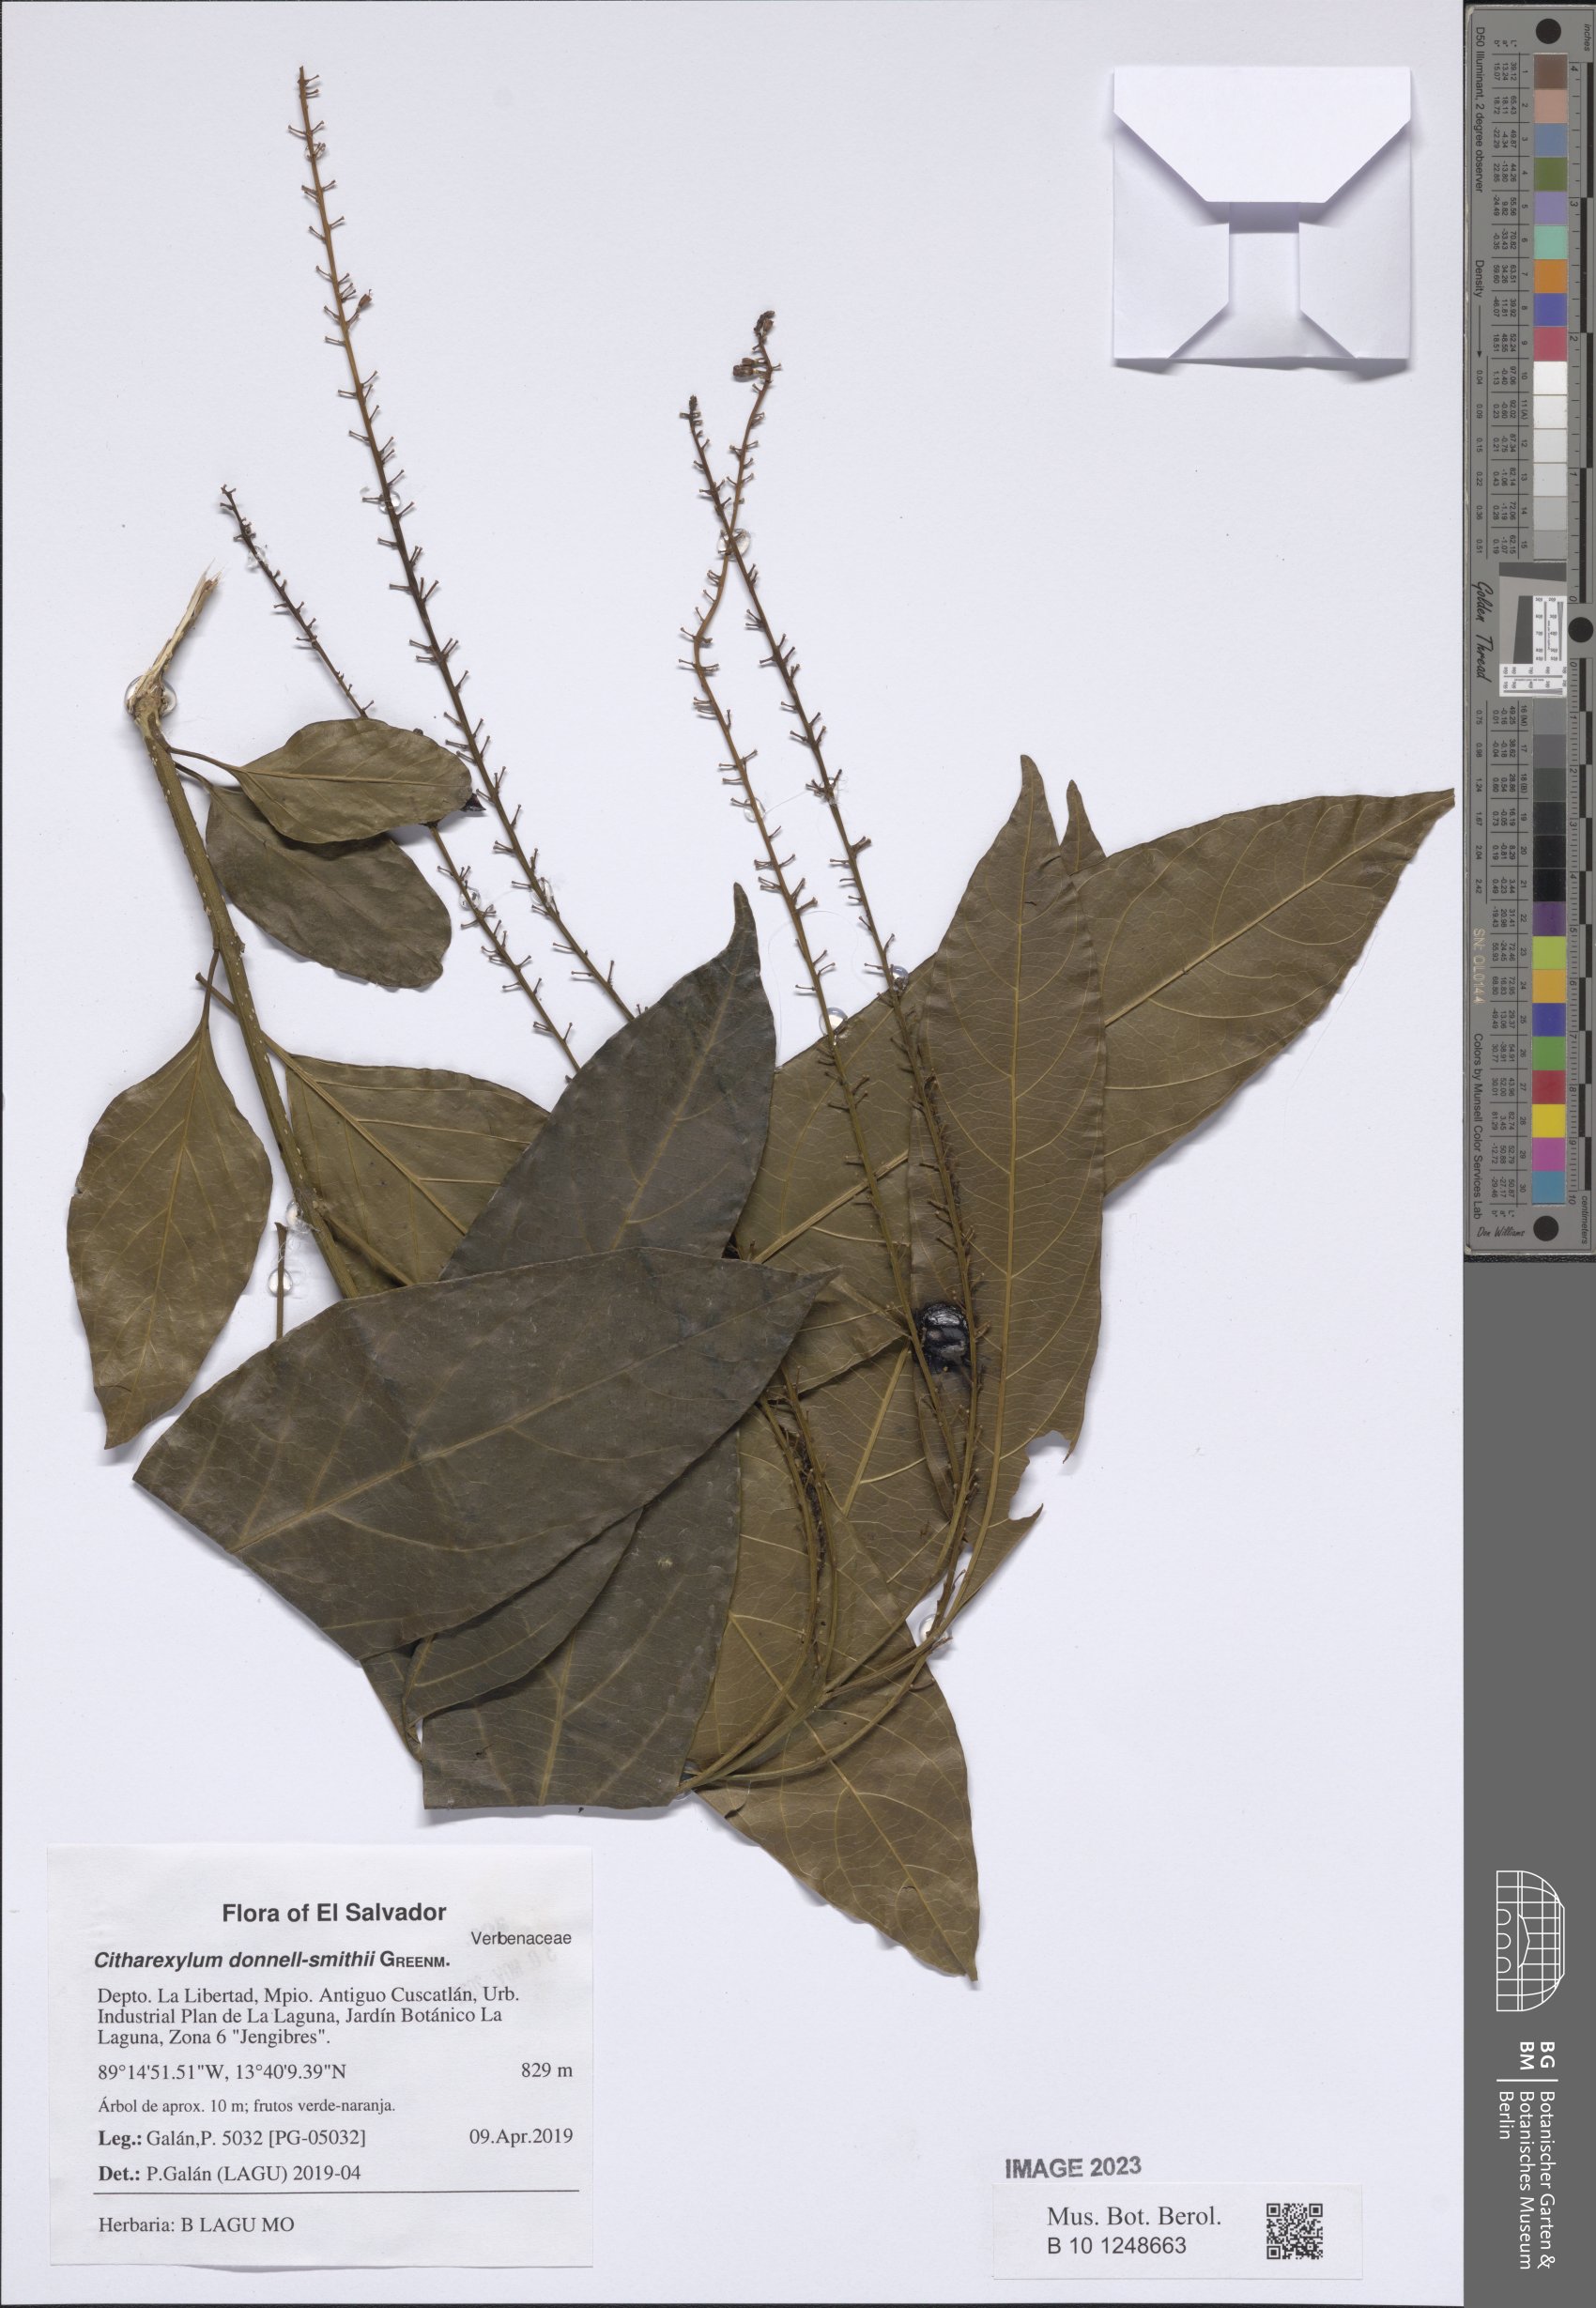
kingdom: Plantae
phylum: Tracheophyta
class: Magnoliopsida
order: Lamiales
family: Verbenaceae
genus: Citharexylum
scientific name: Citharexylum donnell-smithii
